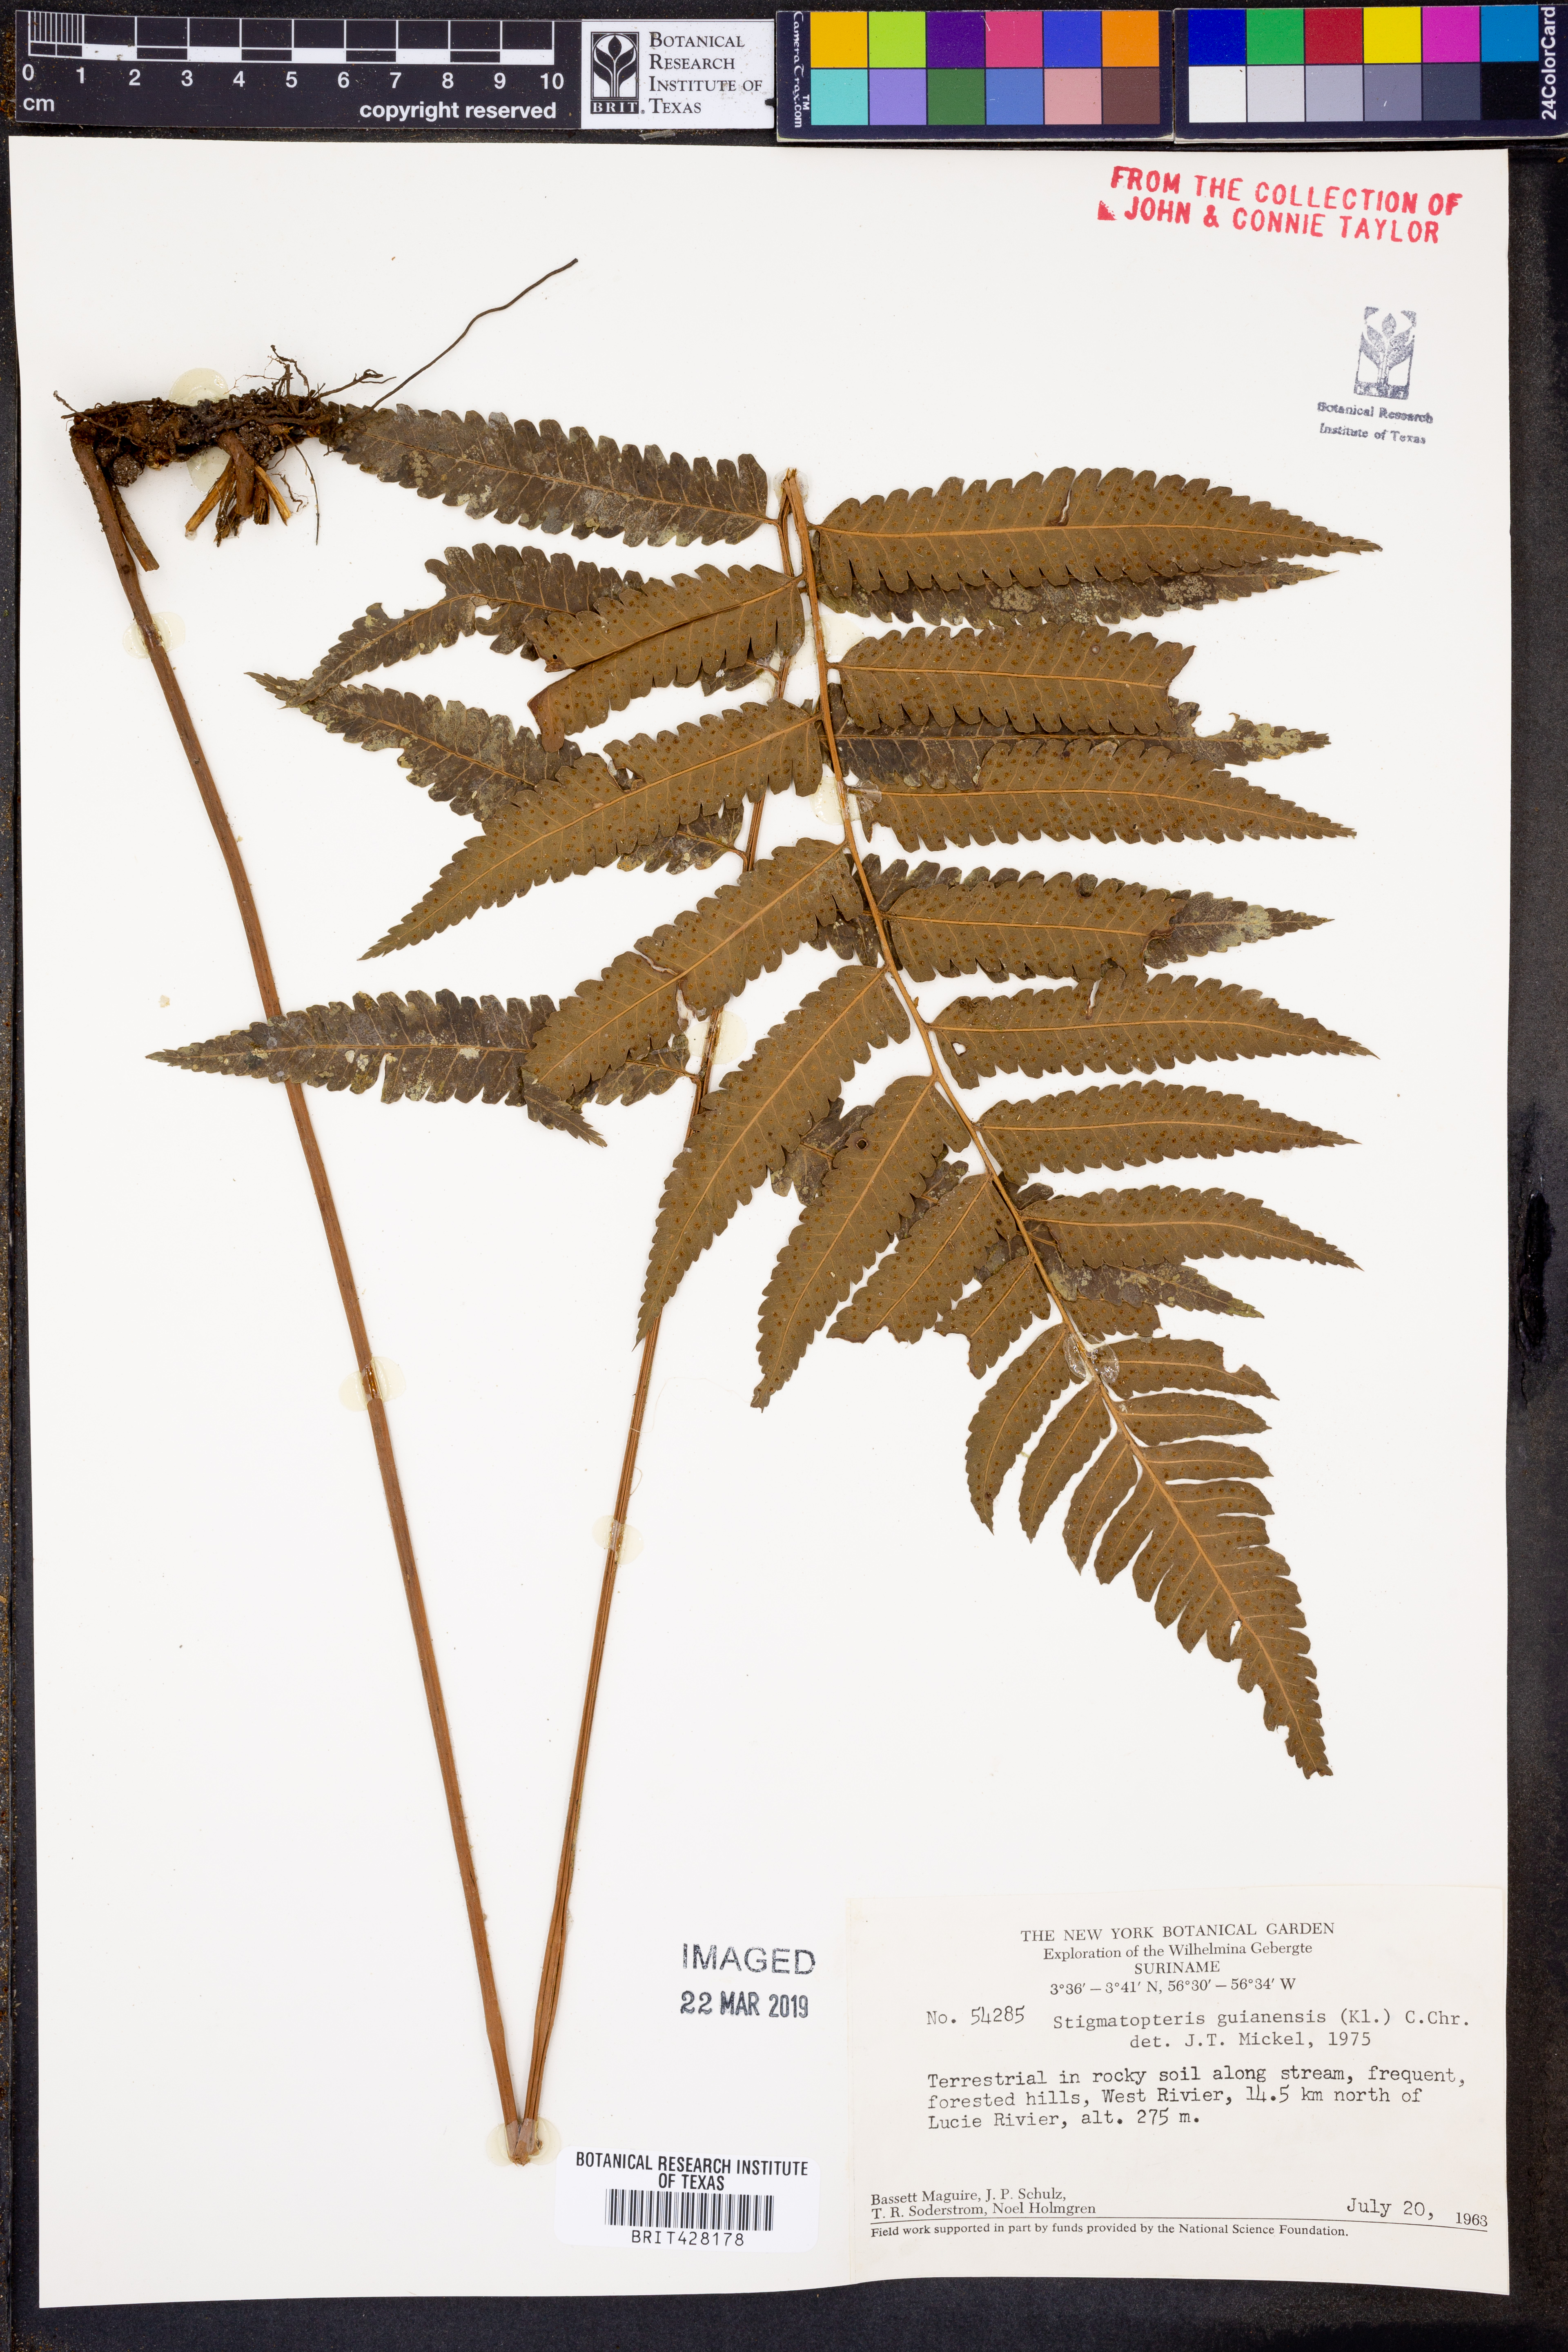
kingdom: Plantae
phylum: Tracheophyta
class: Polypodiopsida
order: Polypodiales
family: Dryopteridaceae
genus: Cyclodium
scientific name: Cyclodium guianense
